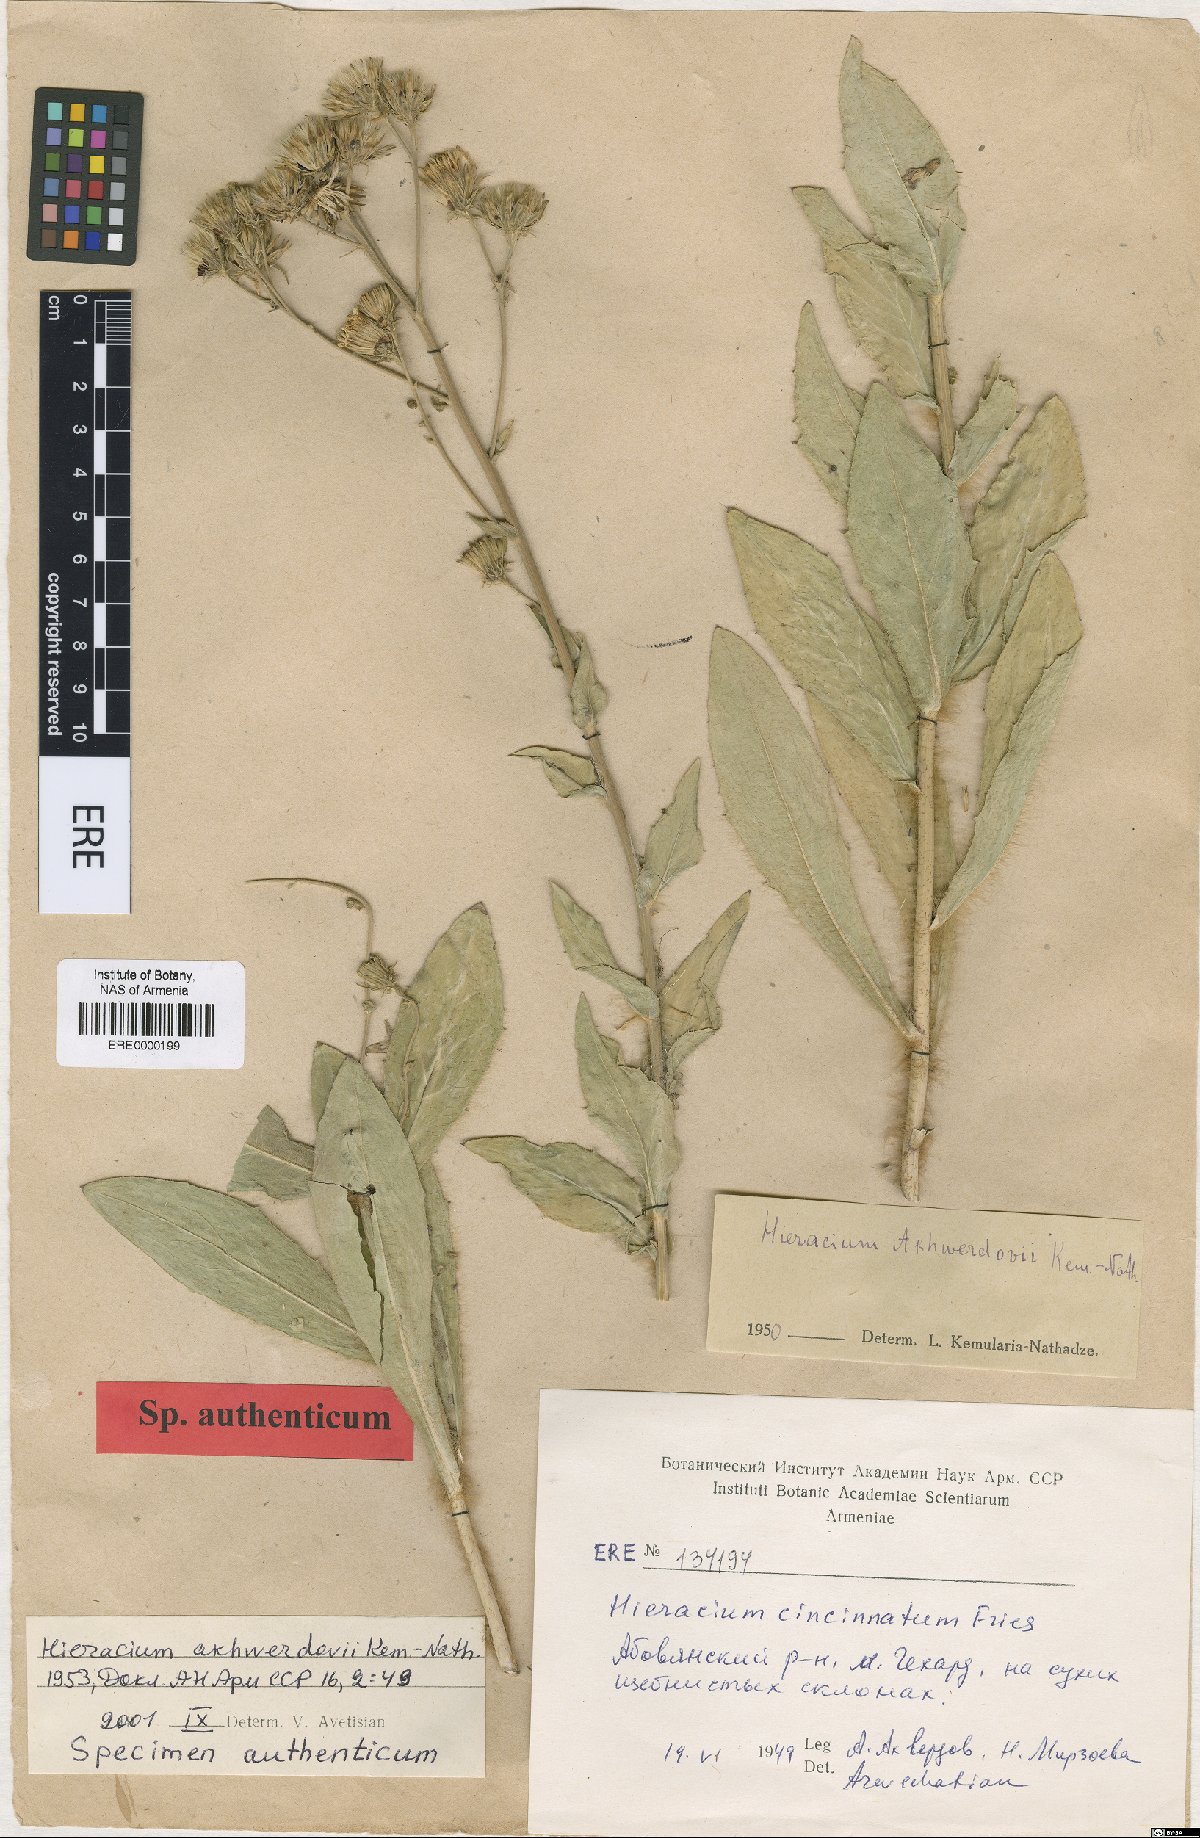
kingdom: Plantae
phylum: Tracheophyta
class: Magnoliopsida
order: Asterales
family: Asteraceae
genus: Hieracium
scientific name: Hieracium cincinnatum
